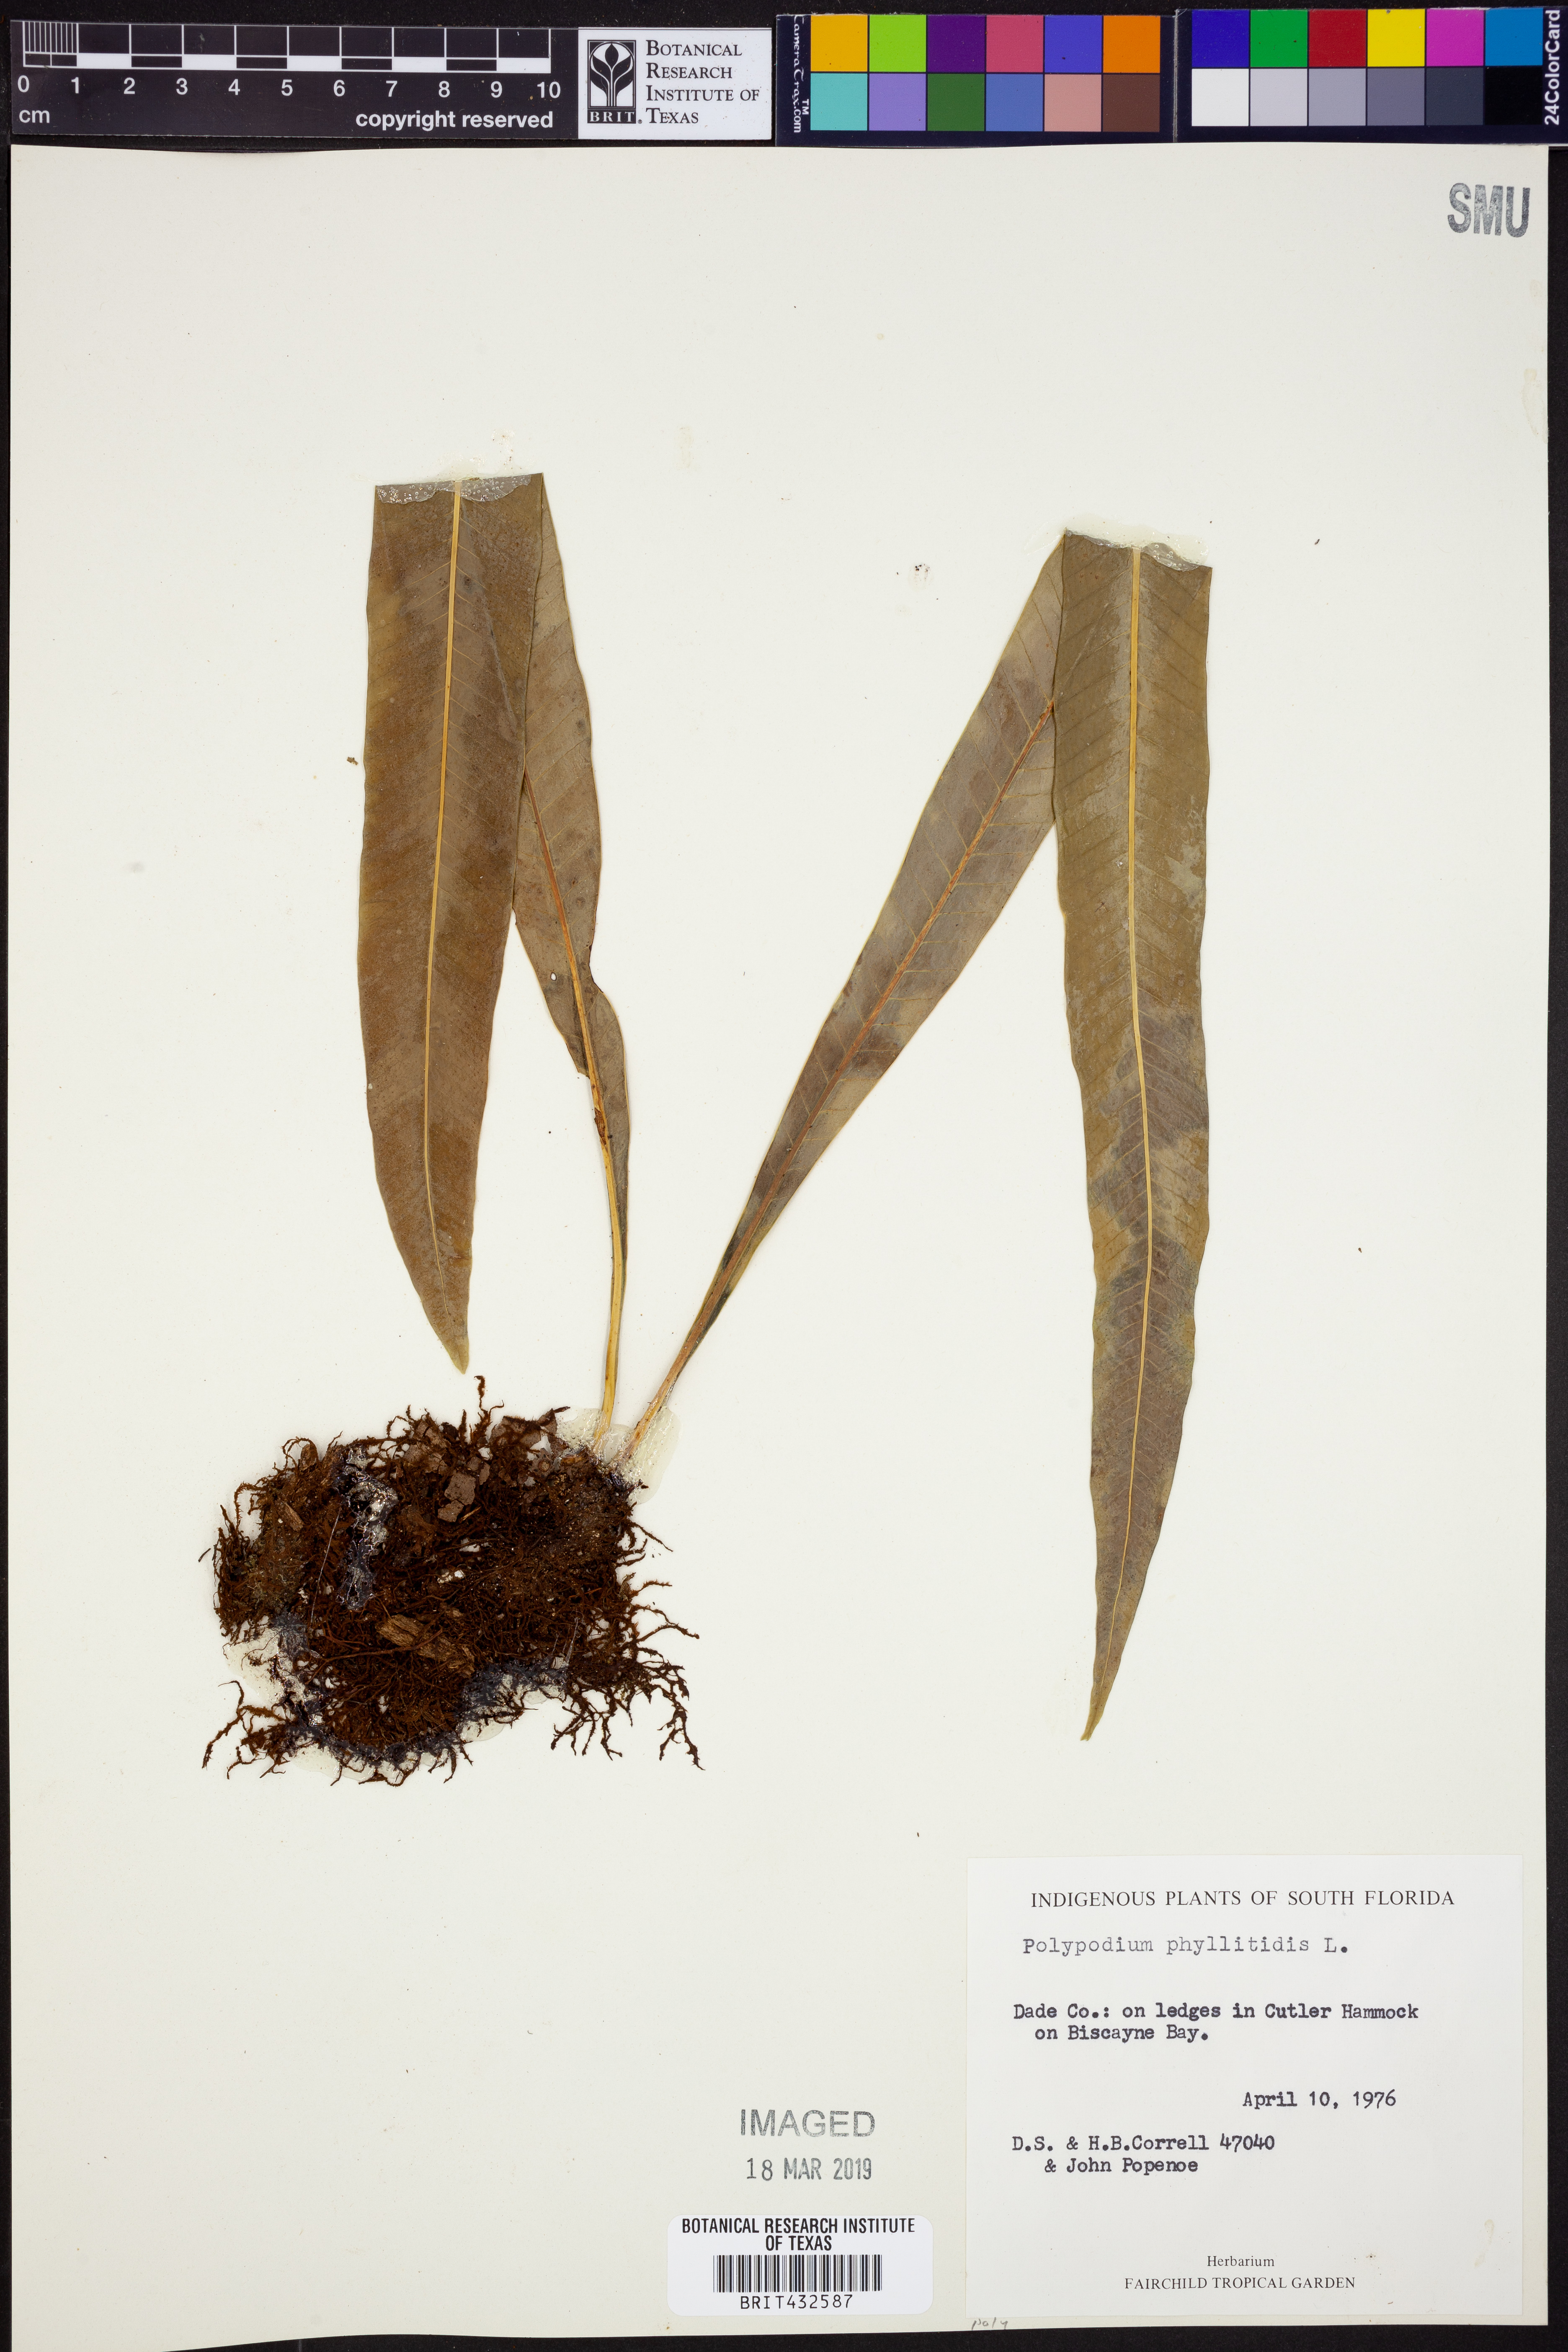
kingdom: Plantae
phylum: Tracheophyta
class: Polypodiopsida
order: Polypodiales
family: Polypodiaceae
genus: Campyloneurum
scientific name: Campyloneurum phyllitidis
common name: Cow-tongue fern
